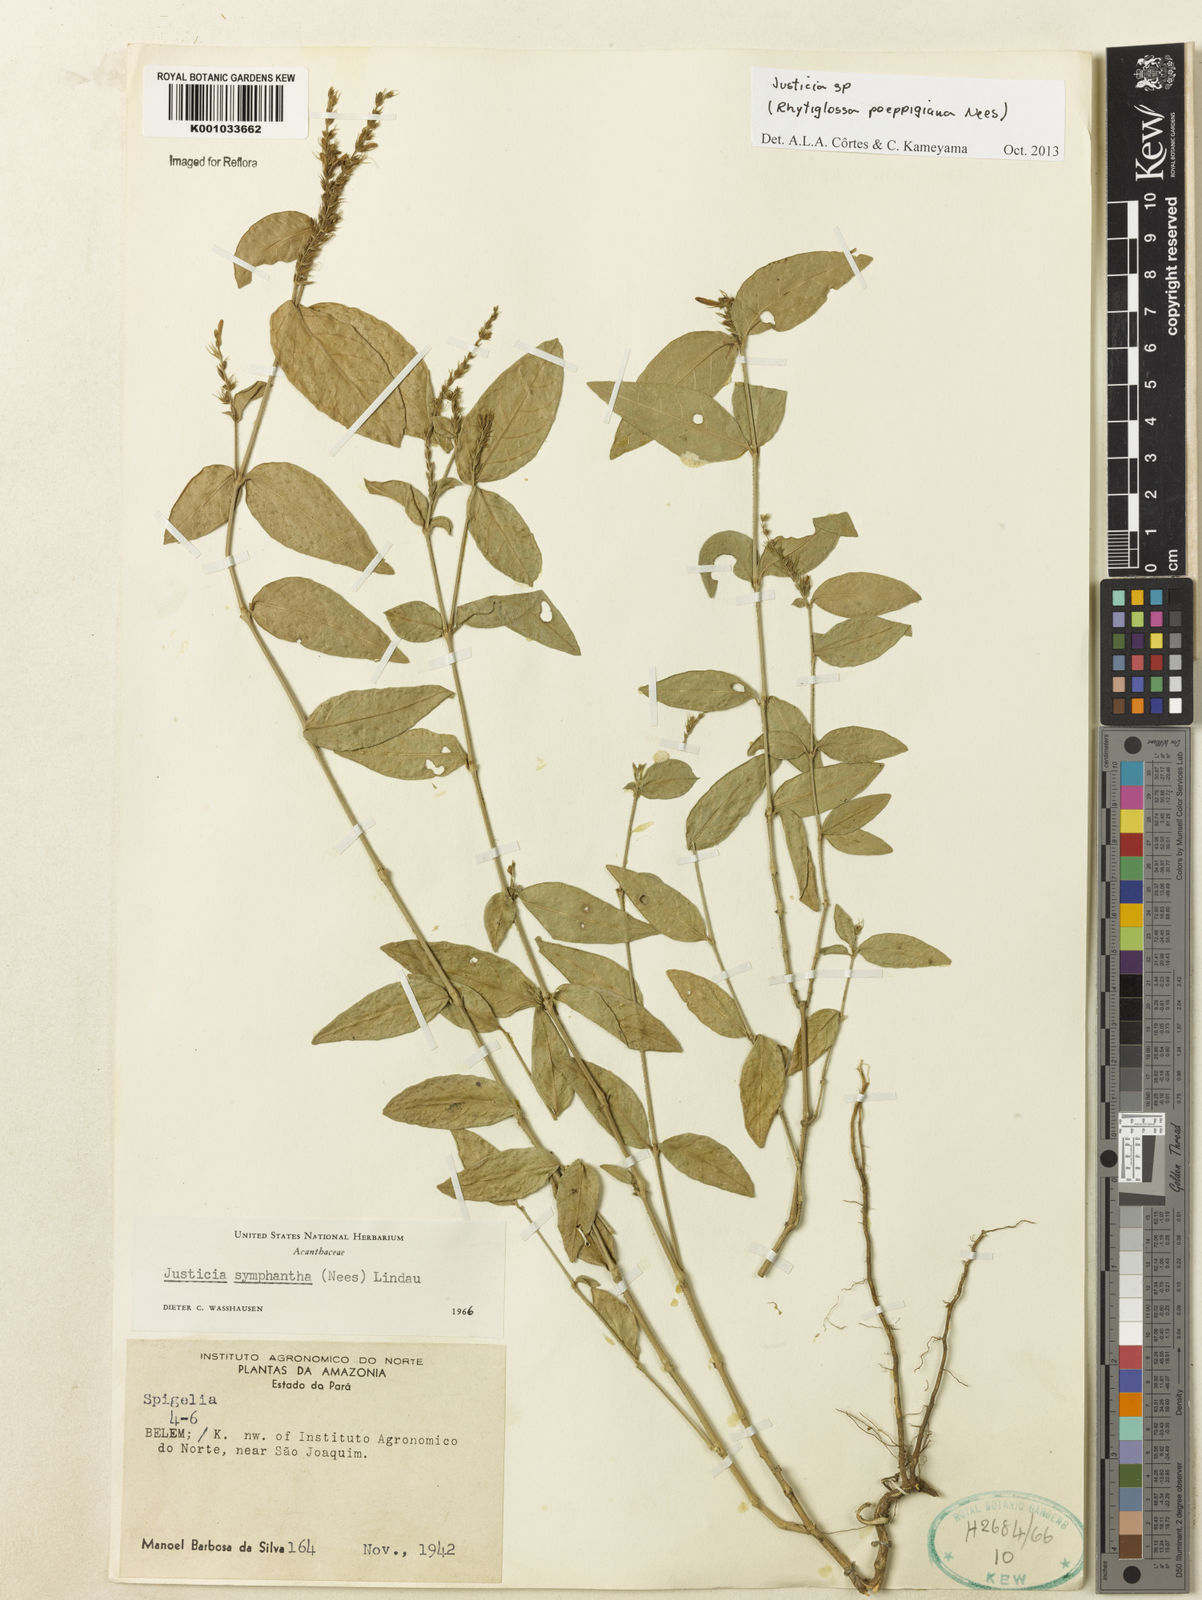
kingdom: Plantae
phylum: Tracheophyta
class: Magnoliopsida
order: Lamiales
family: Acanthaceae
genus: Justicia
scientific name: Justicia
